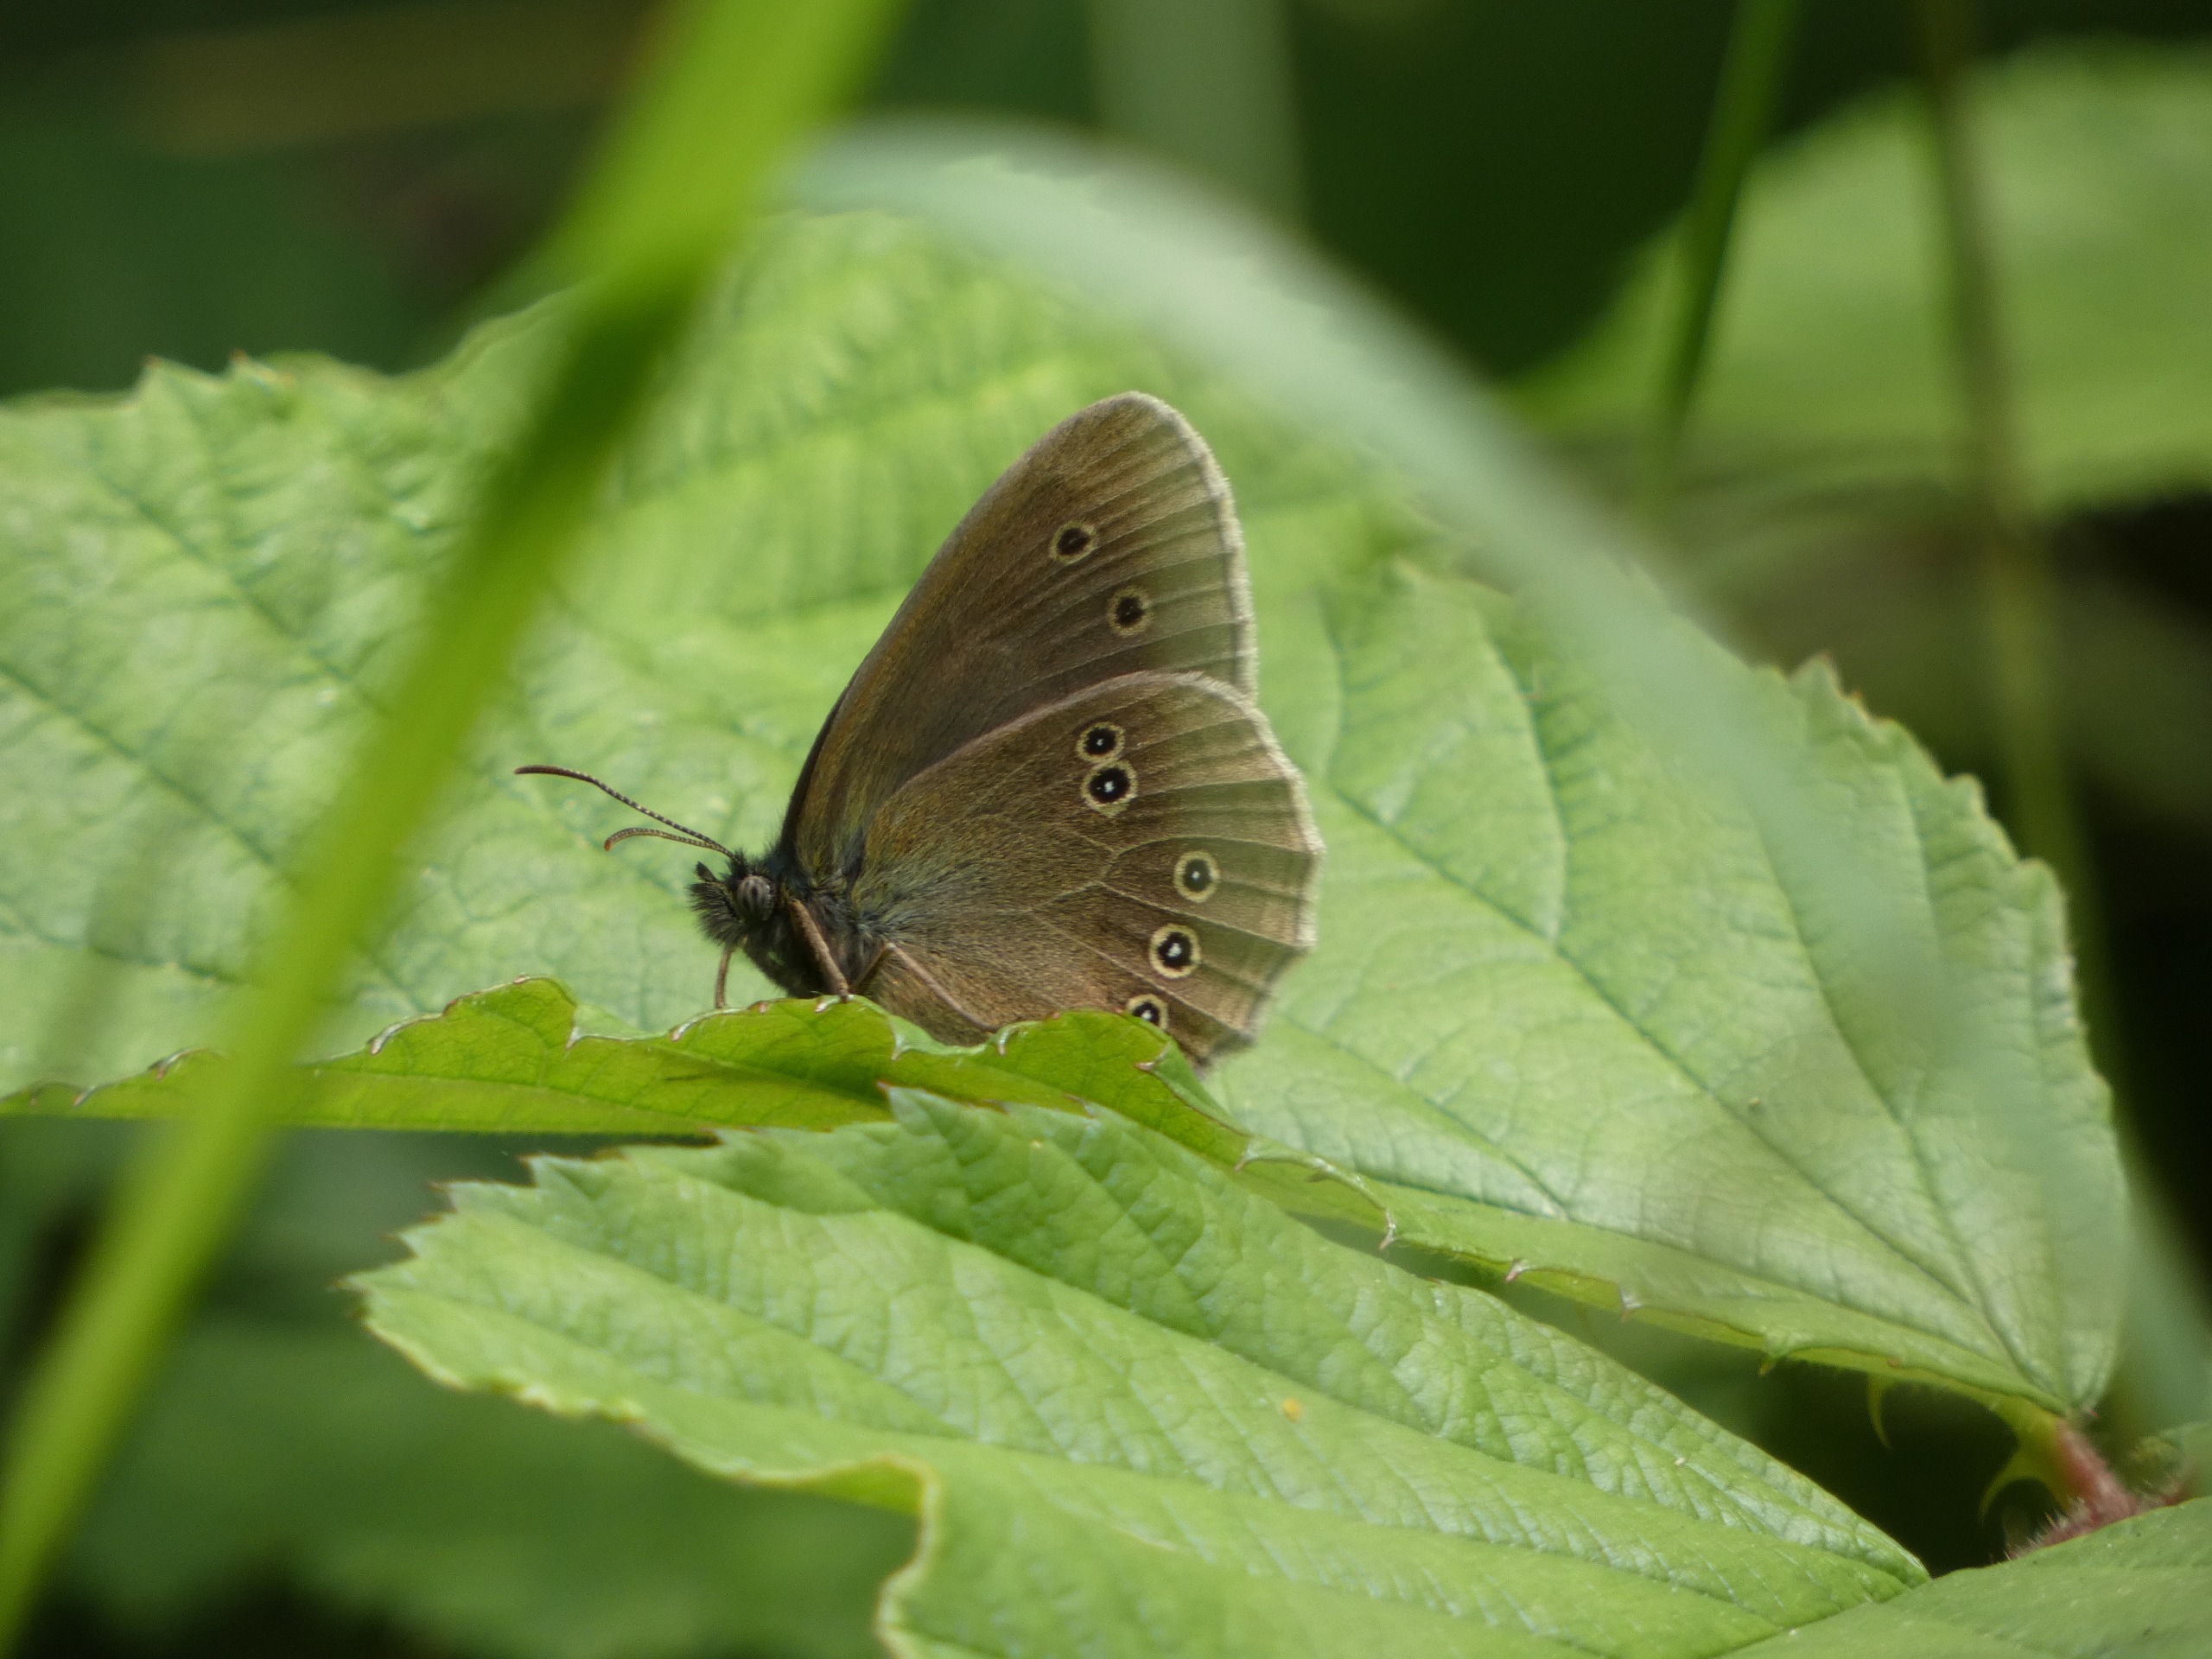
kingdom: Animalia
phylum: Arthropoda
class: Insecta
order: Lepidoptera
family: Nymphalidae
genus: Aphantopus
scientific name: Aphantopus hyperantus
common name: Engrandøje
